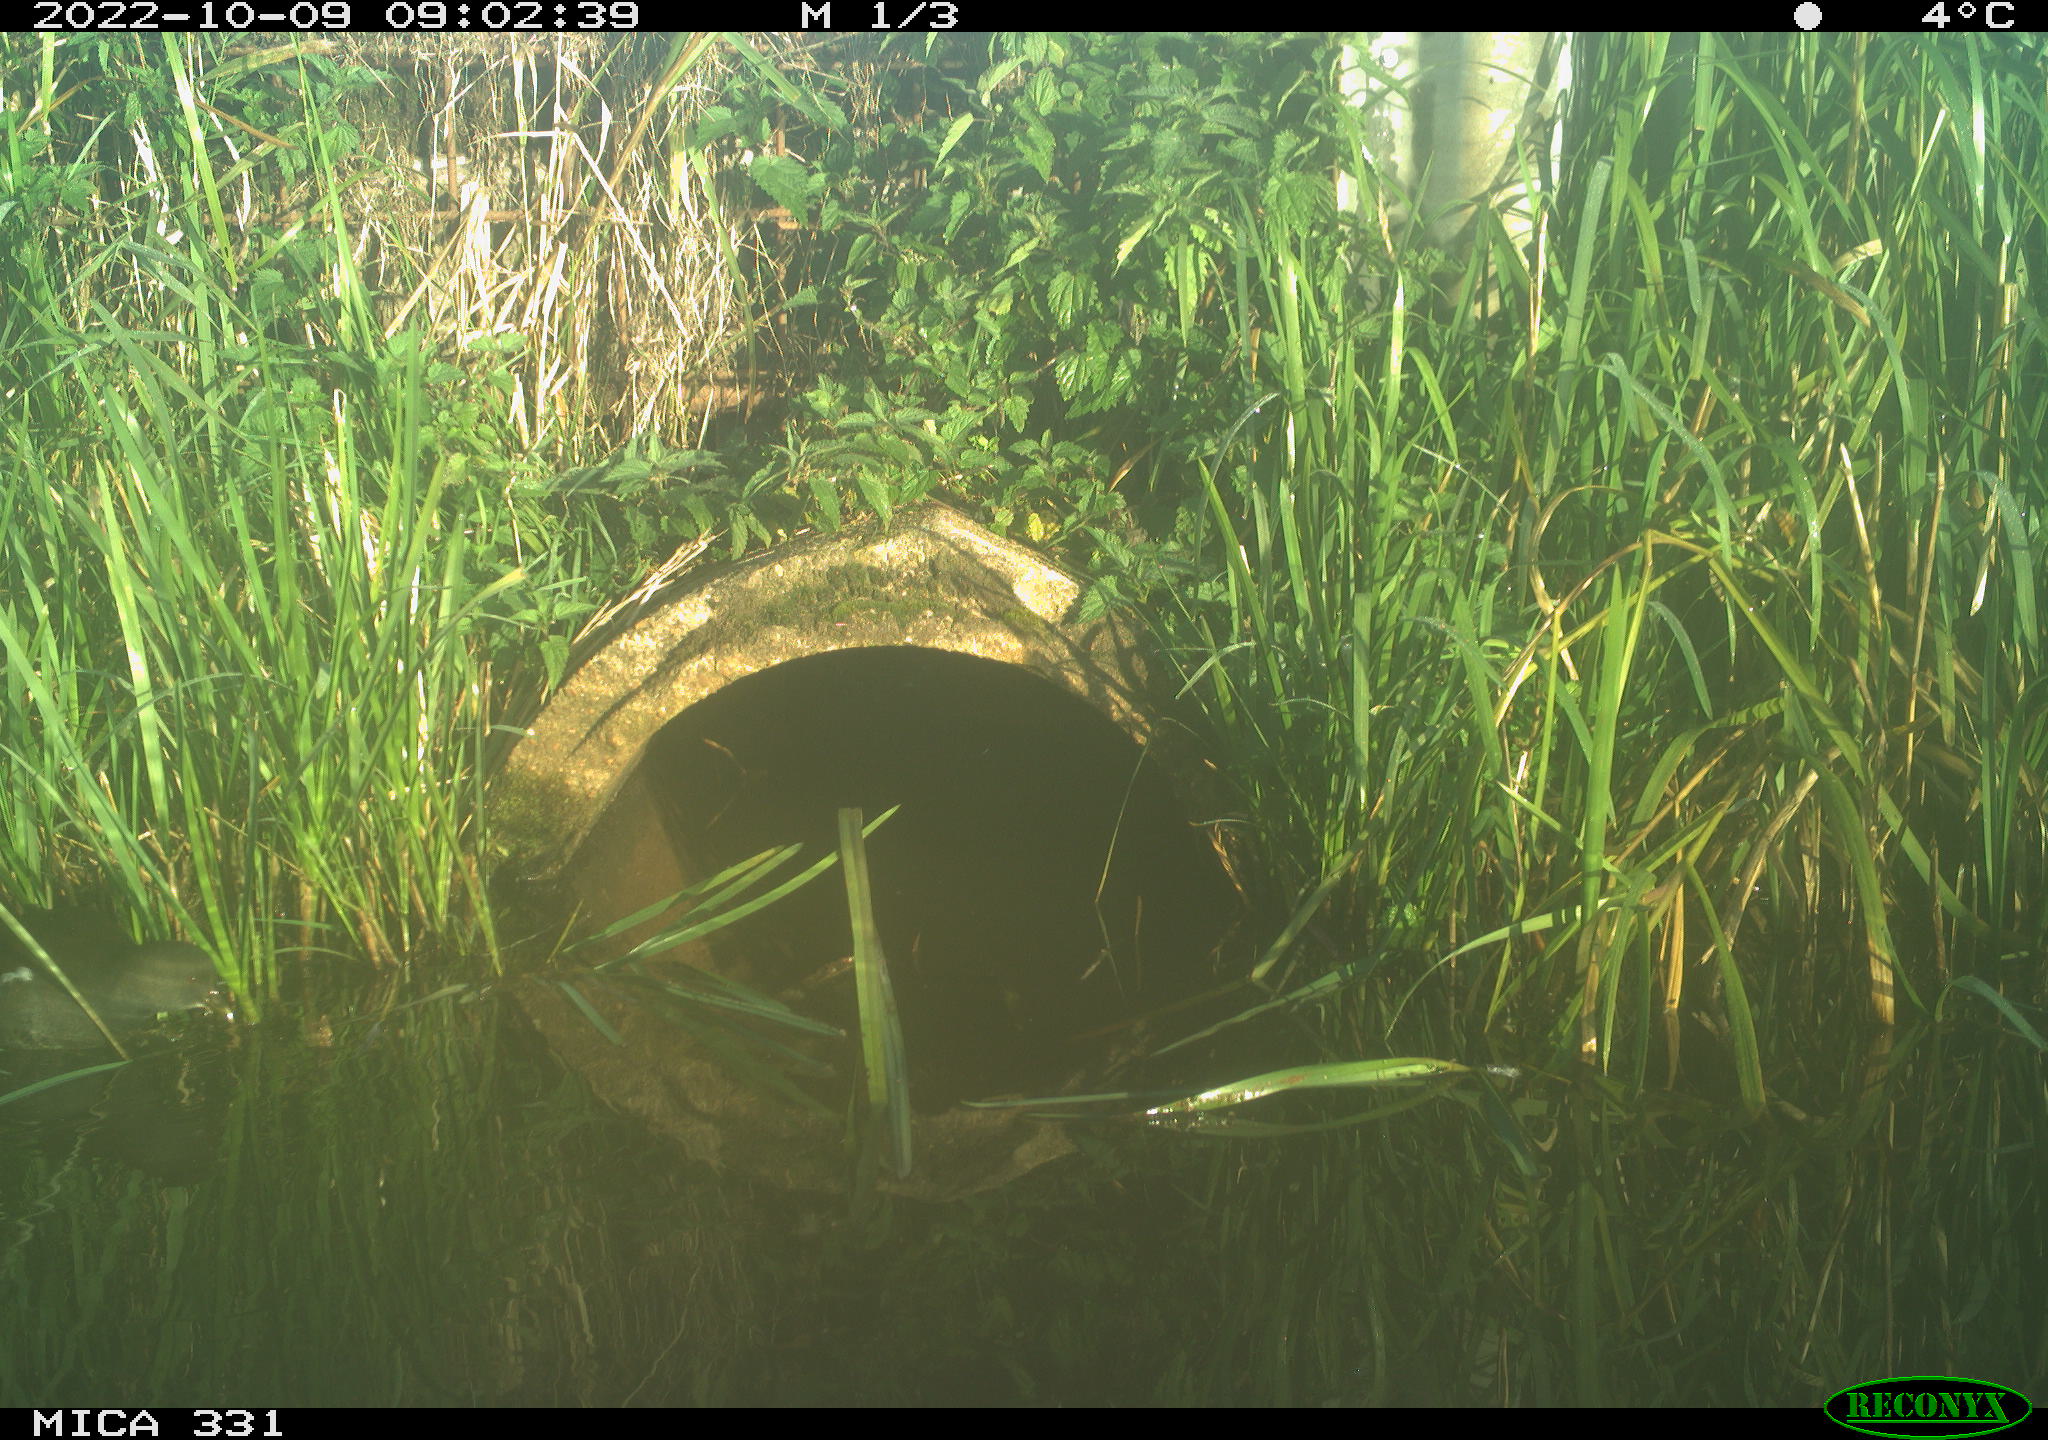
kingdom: Animalia
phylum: Chordata
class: Aves
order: Gruiformes
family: Rallidae
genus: Gallinula
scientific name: Gallinula chloropus
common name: Common moorhen
